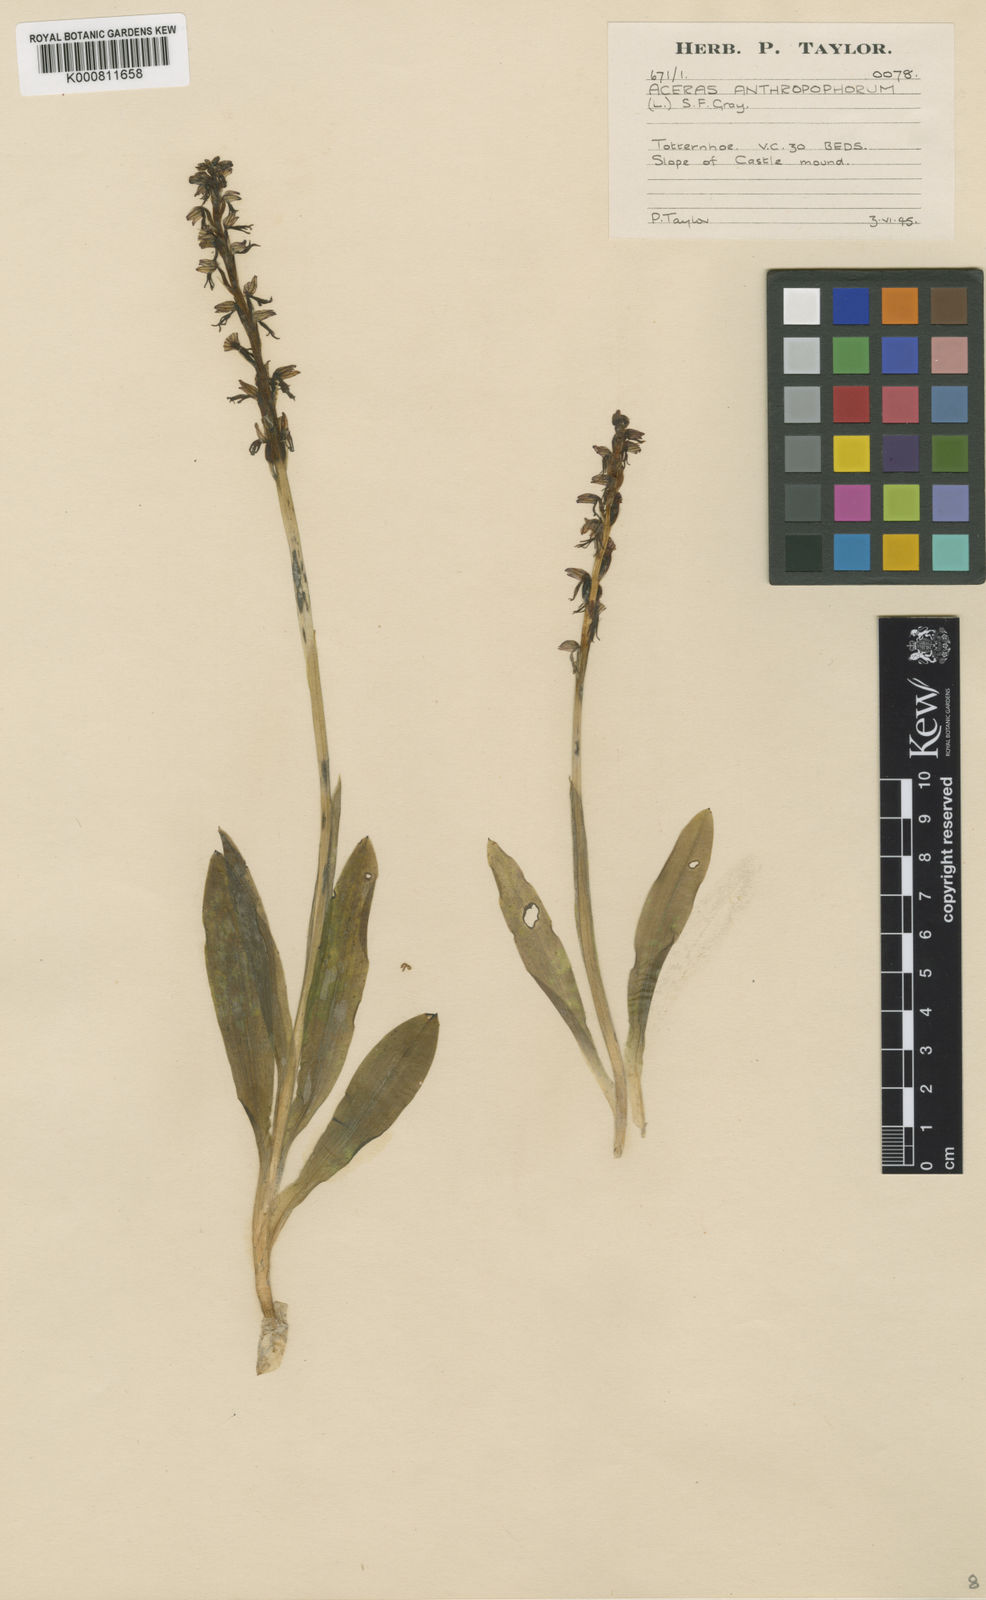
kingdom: Plantae
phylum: Tracheophyta
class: Liliopsida
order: Asparagales
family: Orchidaceae
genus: Orchis
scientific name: Orchis
